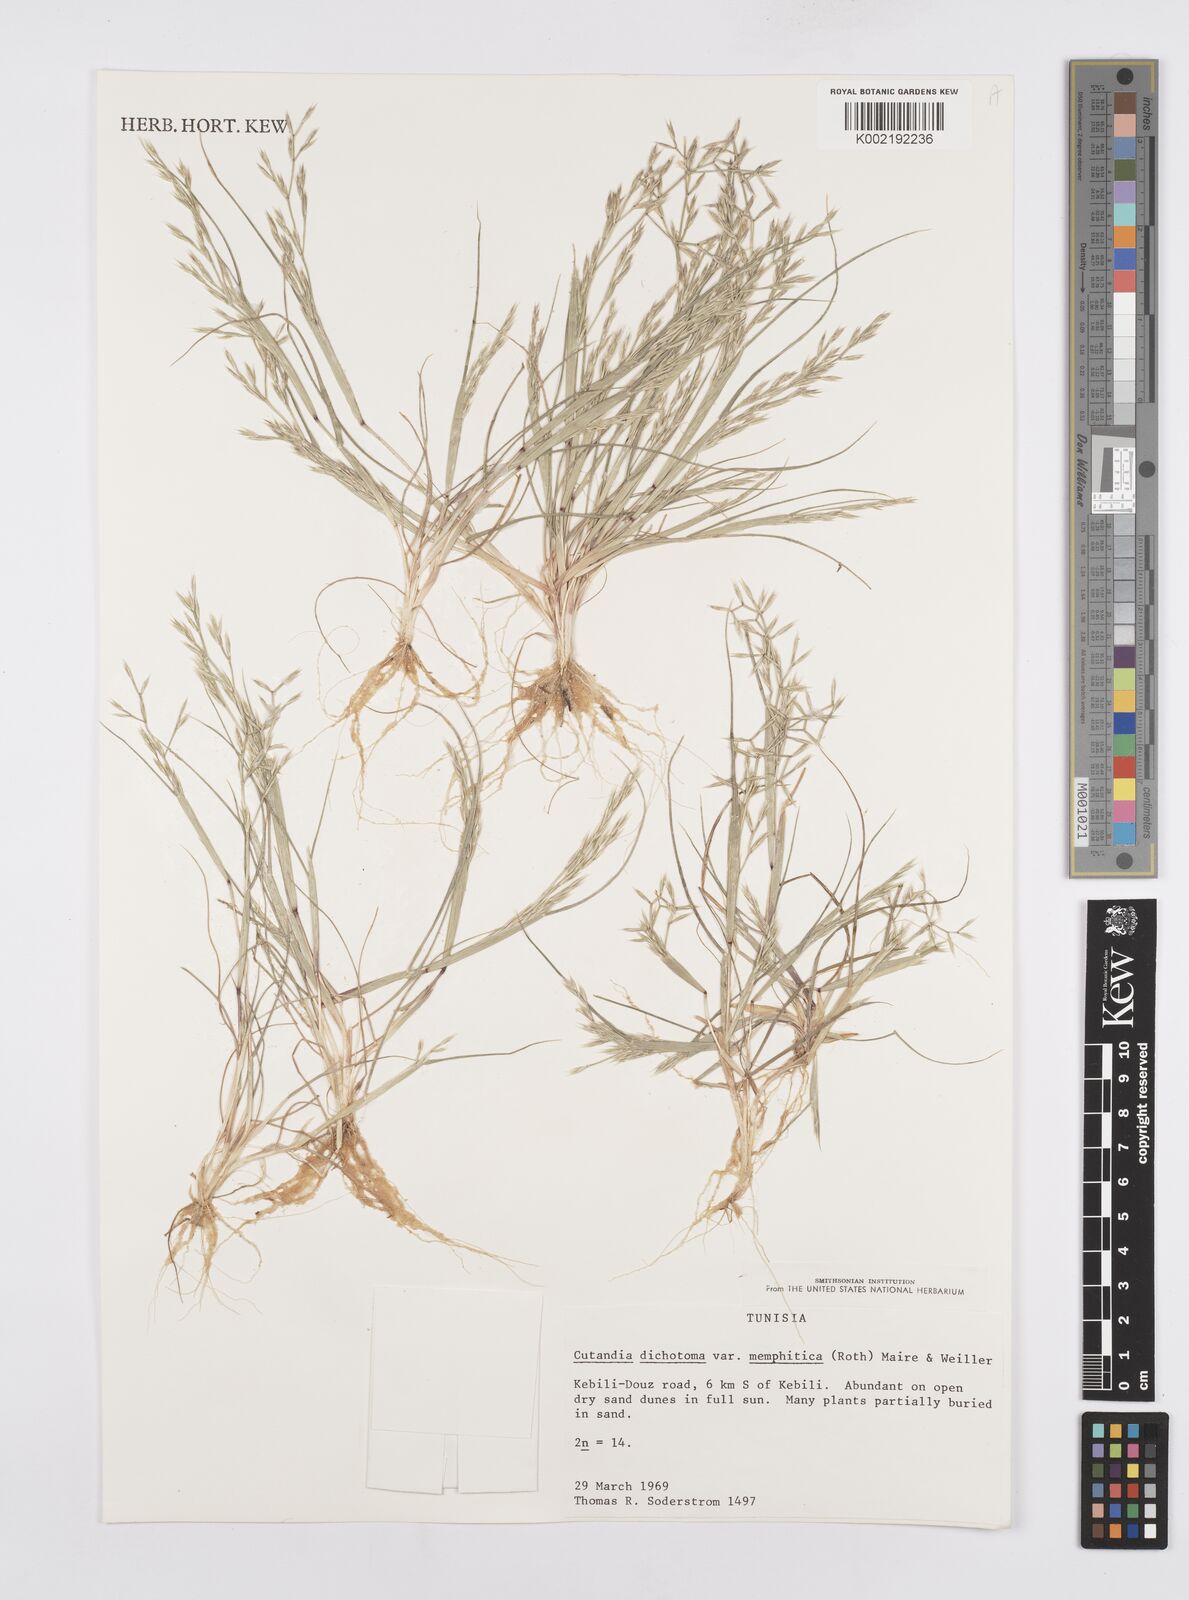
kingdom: Plantae
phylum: Tracheophyta
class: Liliopsida
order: Poales
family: Poaceae
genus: Cutandia
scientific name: Cutandia memphitica
